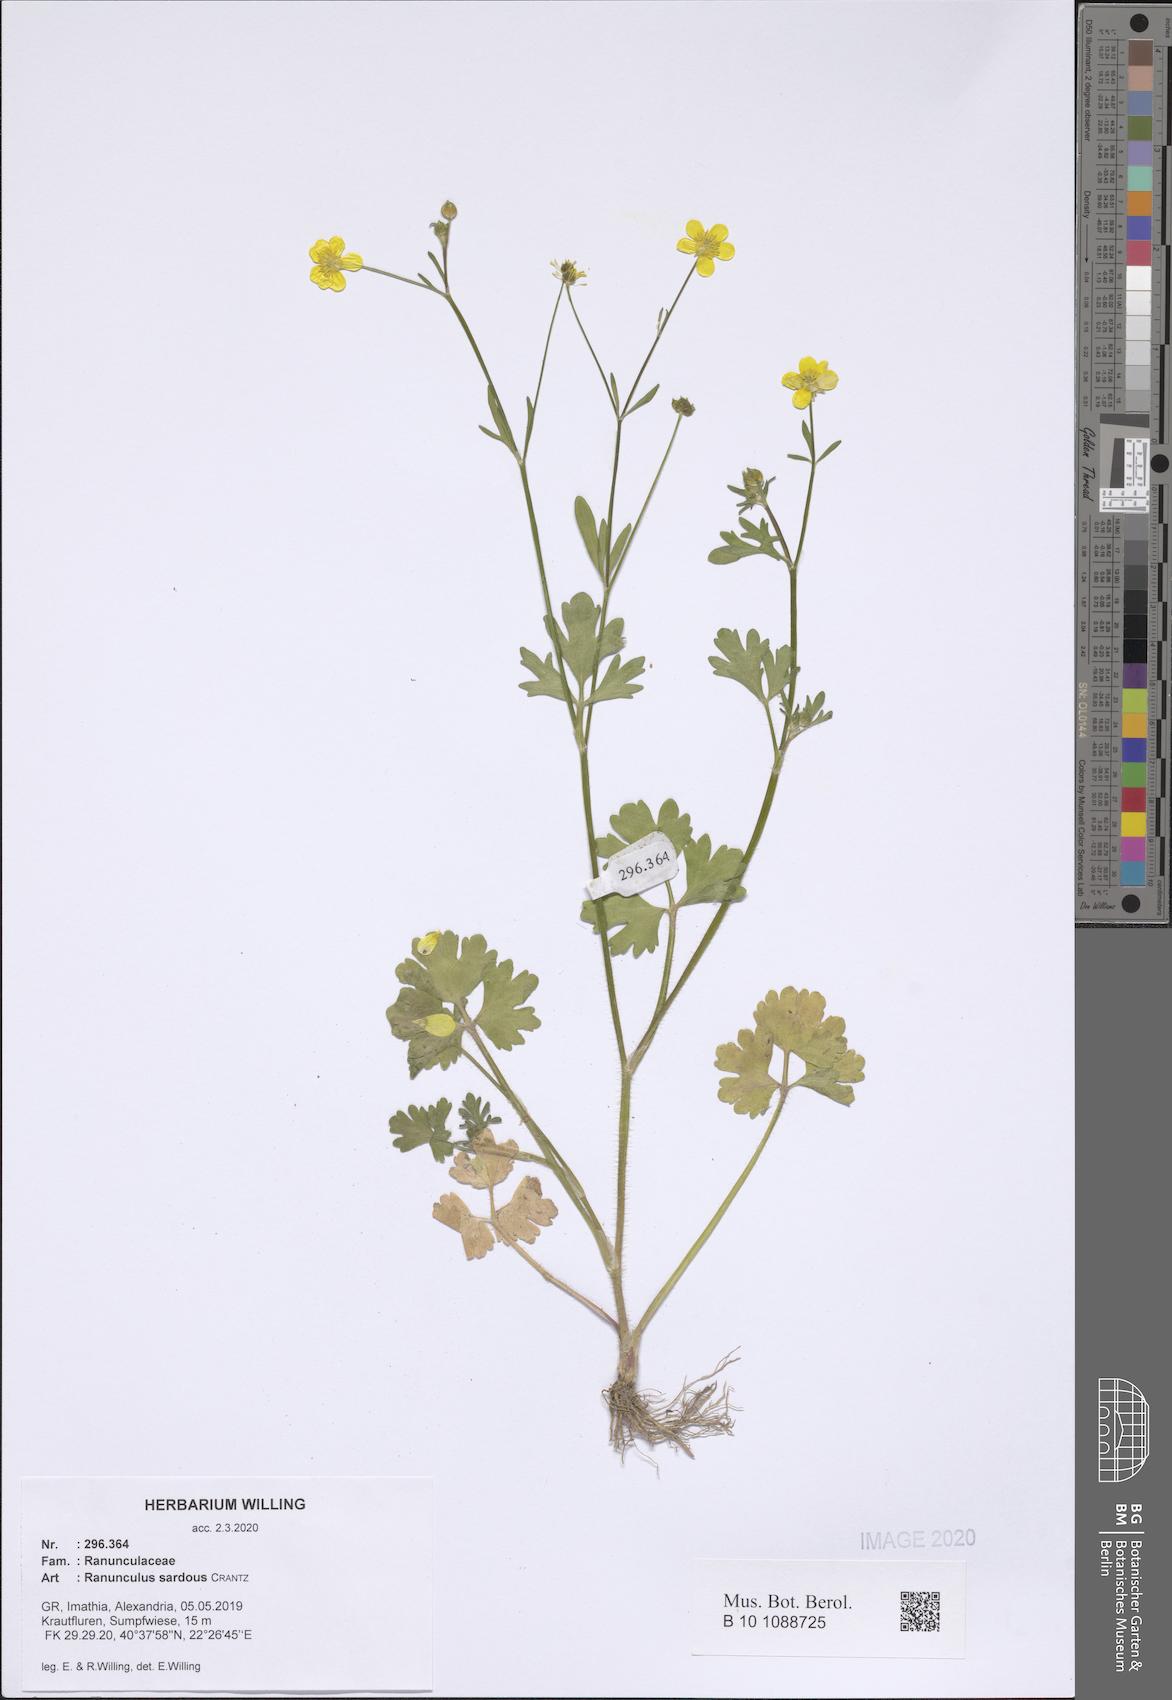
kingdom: Plantae
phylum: Tracheophyta
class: Magnoliopsida
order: Ranunculales
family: Ranunculaceae
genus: Ranunculus
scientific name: Ranunculus sardous
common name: Hairy buttercup
